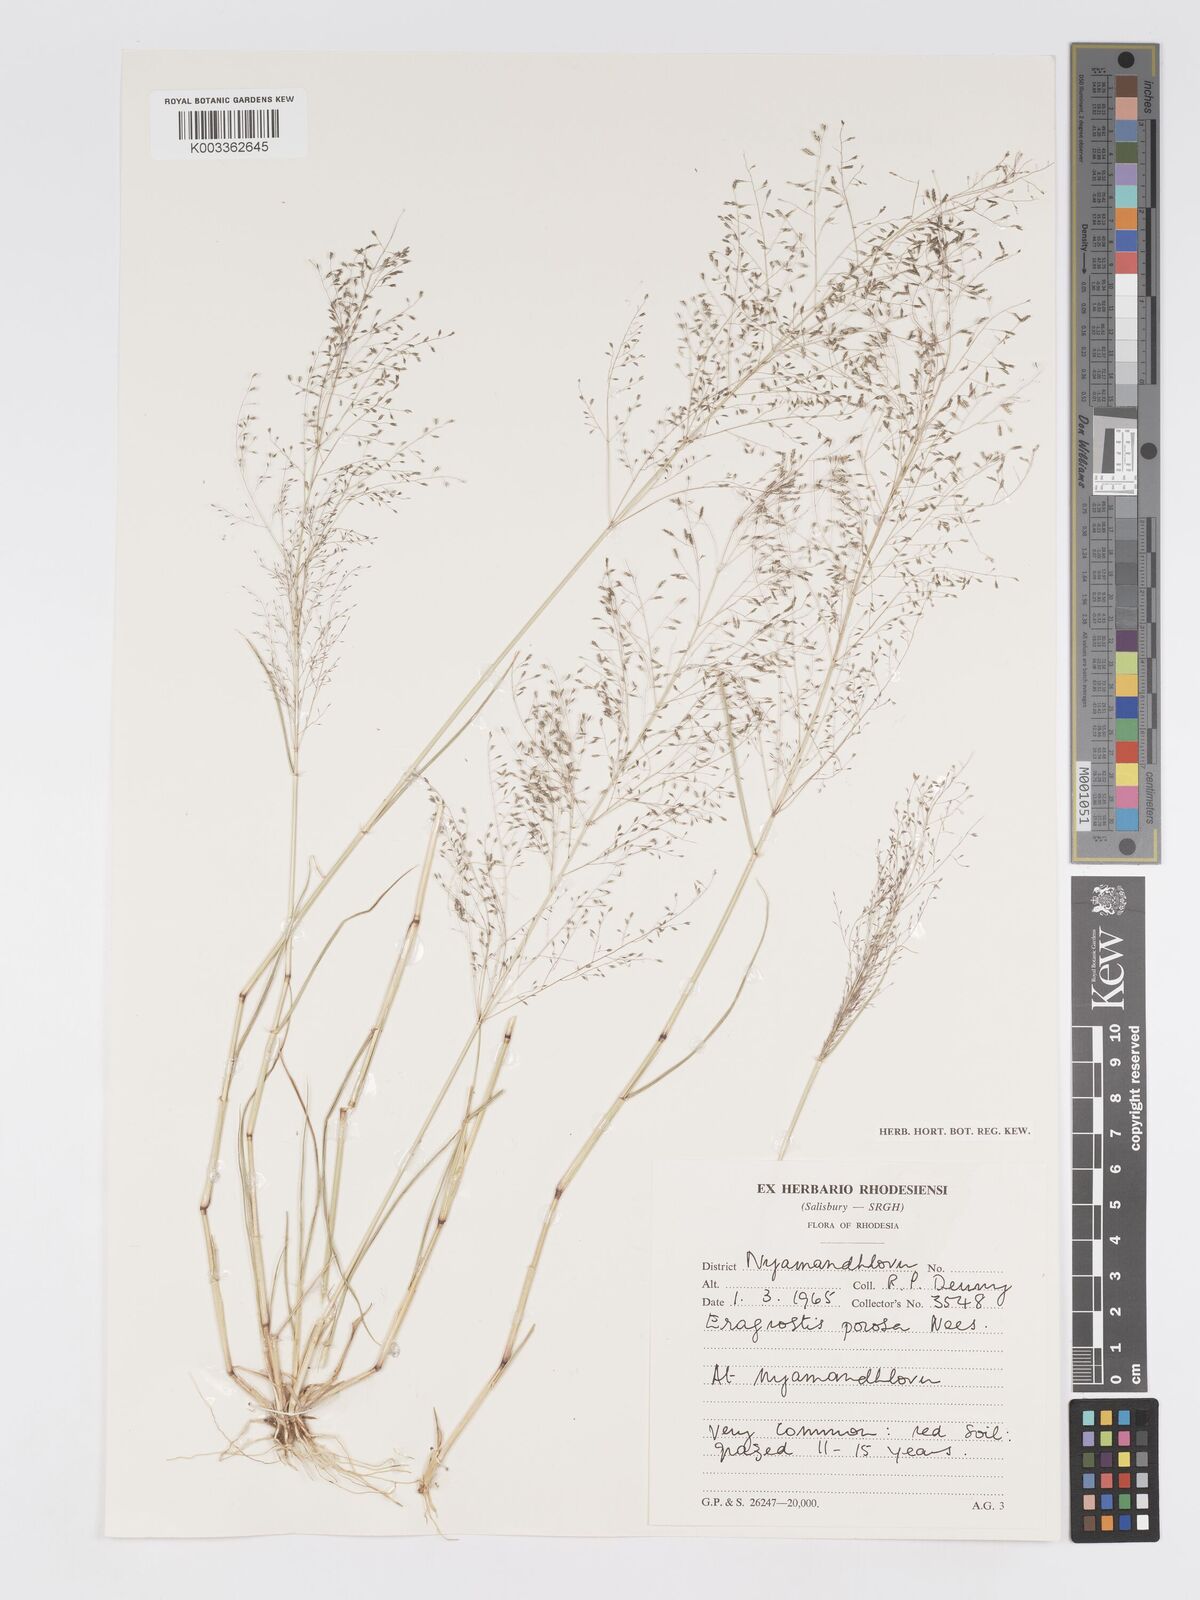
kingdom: Plantae
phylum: Tracheophyta
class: Liliopsida
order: Poales
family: Poaceae
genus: Eragrostis
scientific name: Eragrostis porosa
